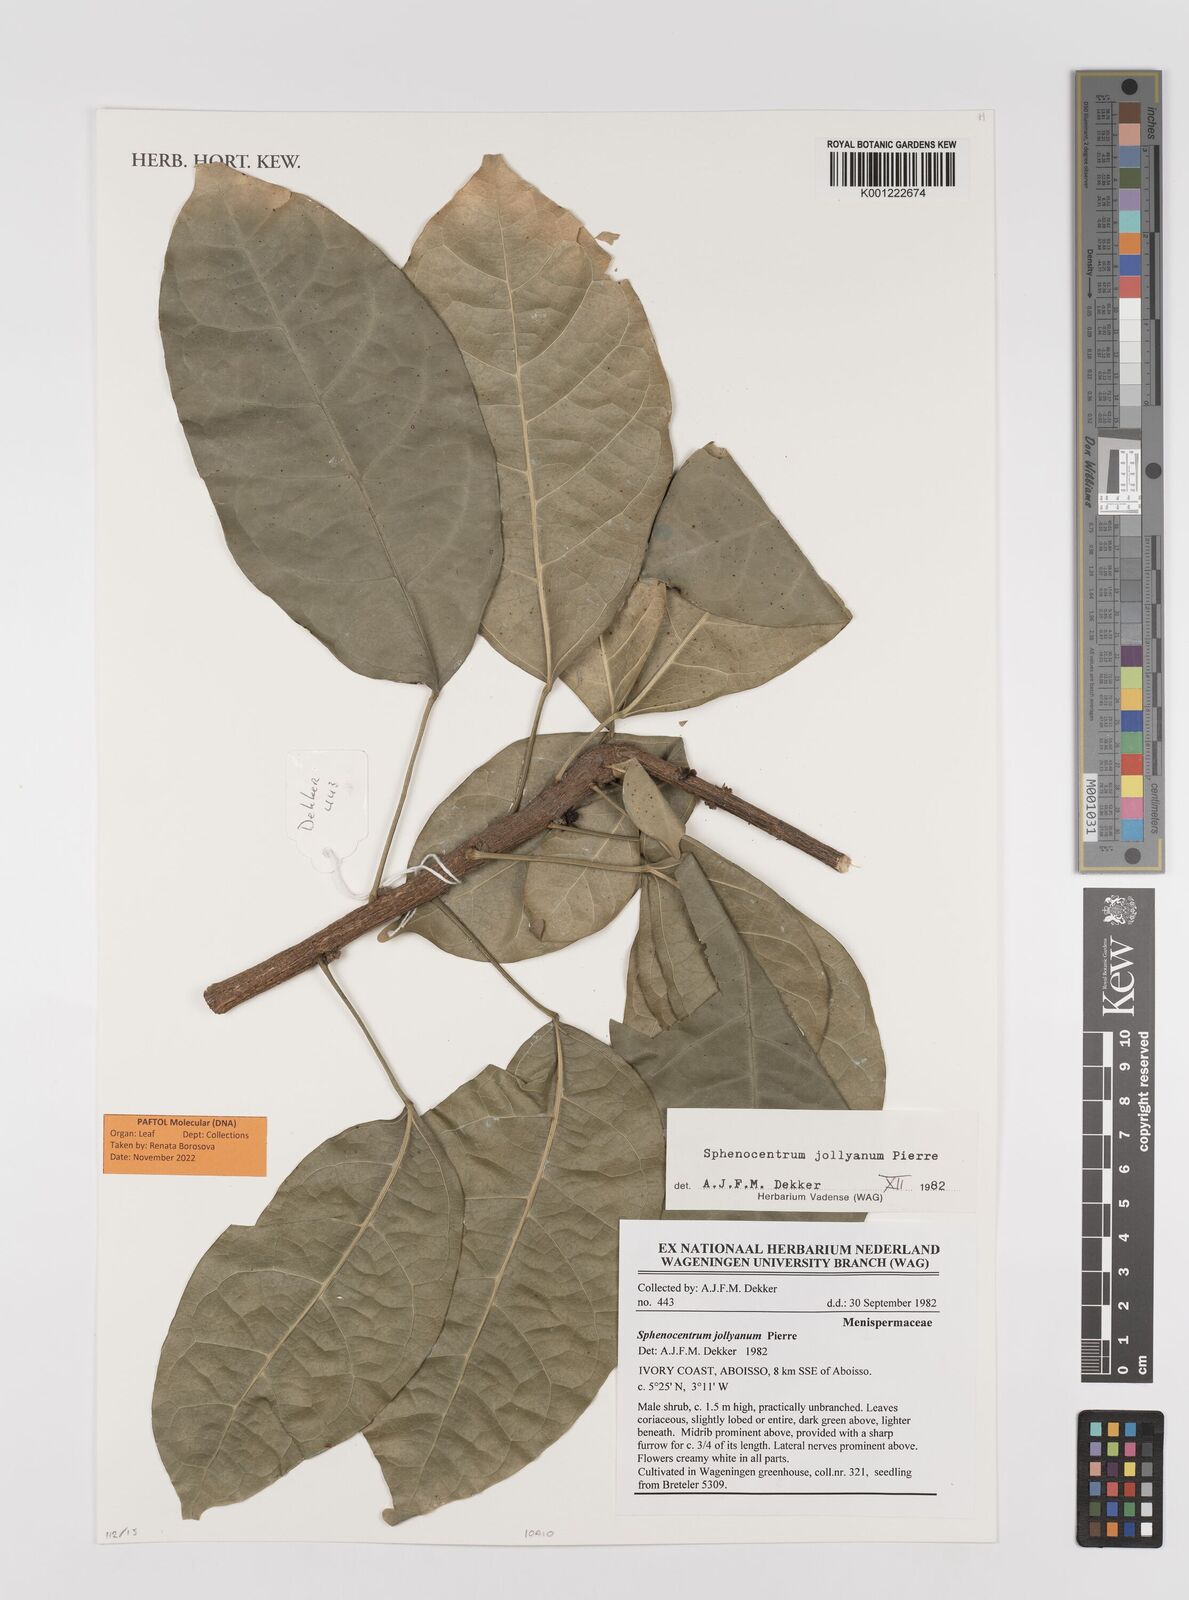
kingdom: Plantae
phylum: Tracheophyta
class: Magnoliopsida
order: Ranunculales
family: Menispermaceae
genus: Sphenocentrum
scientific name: Sphenocentrum jollyanum
